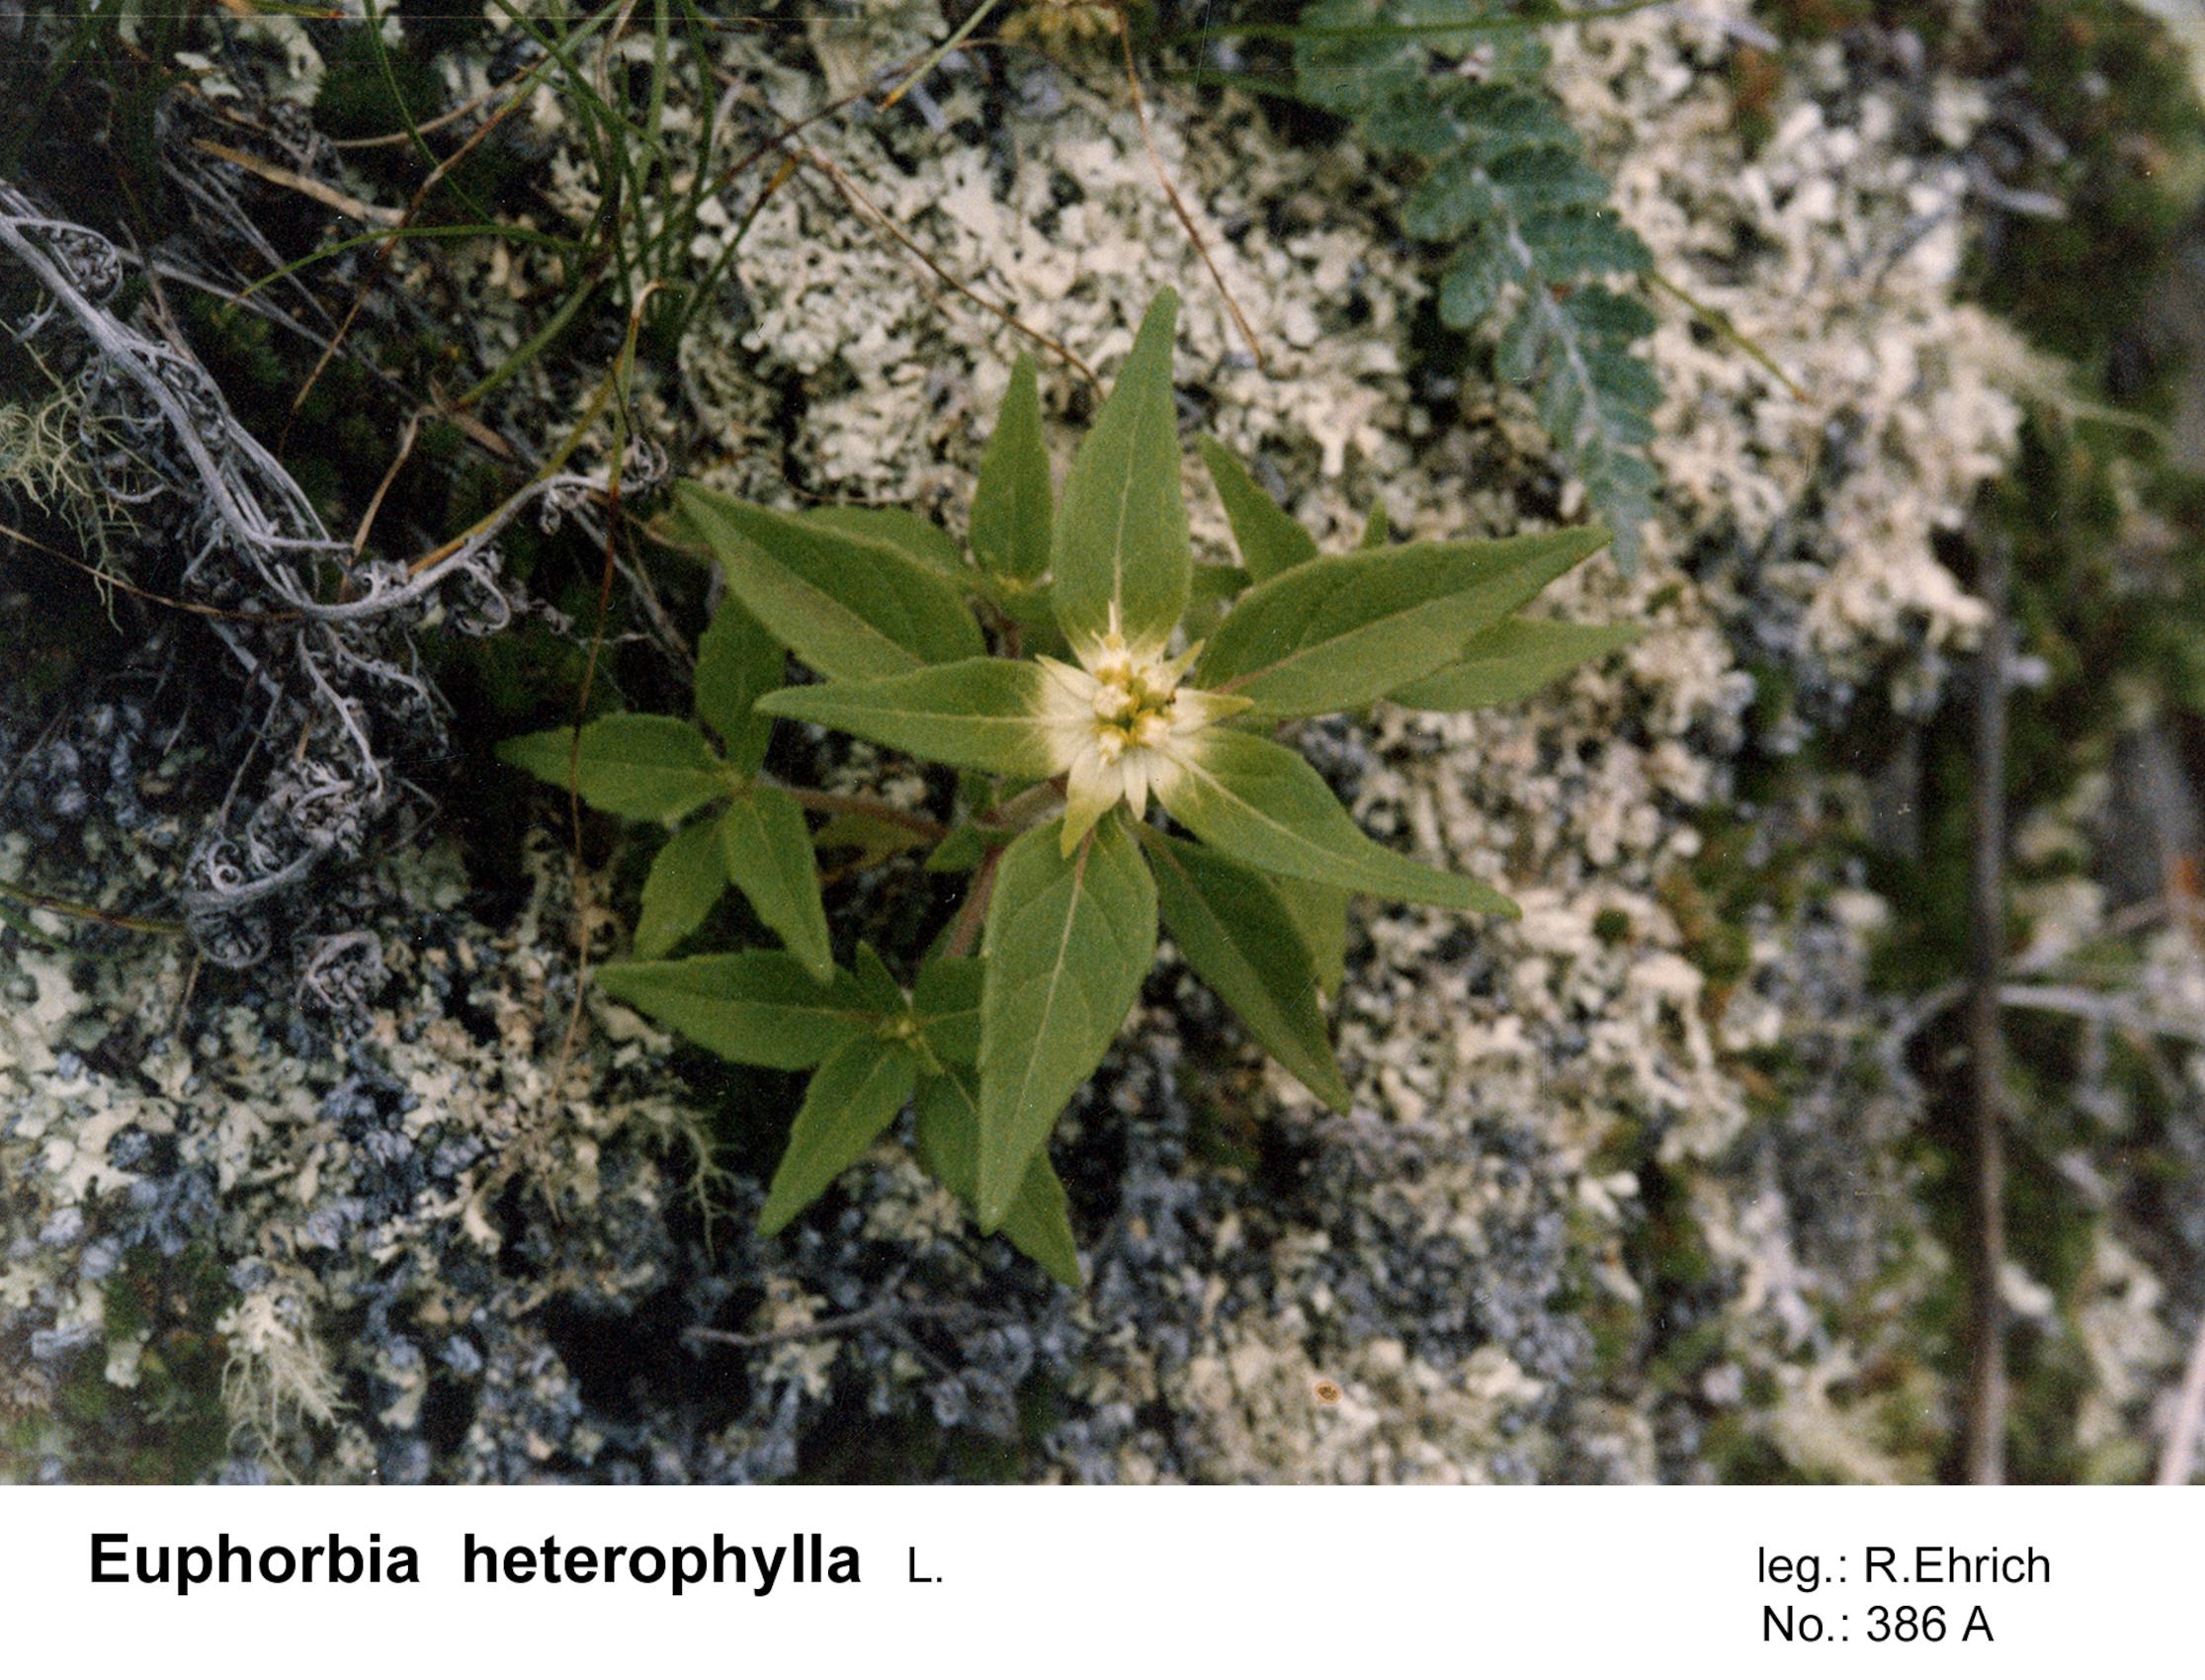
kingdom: Plantae
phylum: Tracheophyta
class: Magnoliopsida
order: Gentianales
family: Rubiaceae
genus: Spermacoce
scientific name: Spermacoce eryngioides
